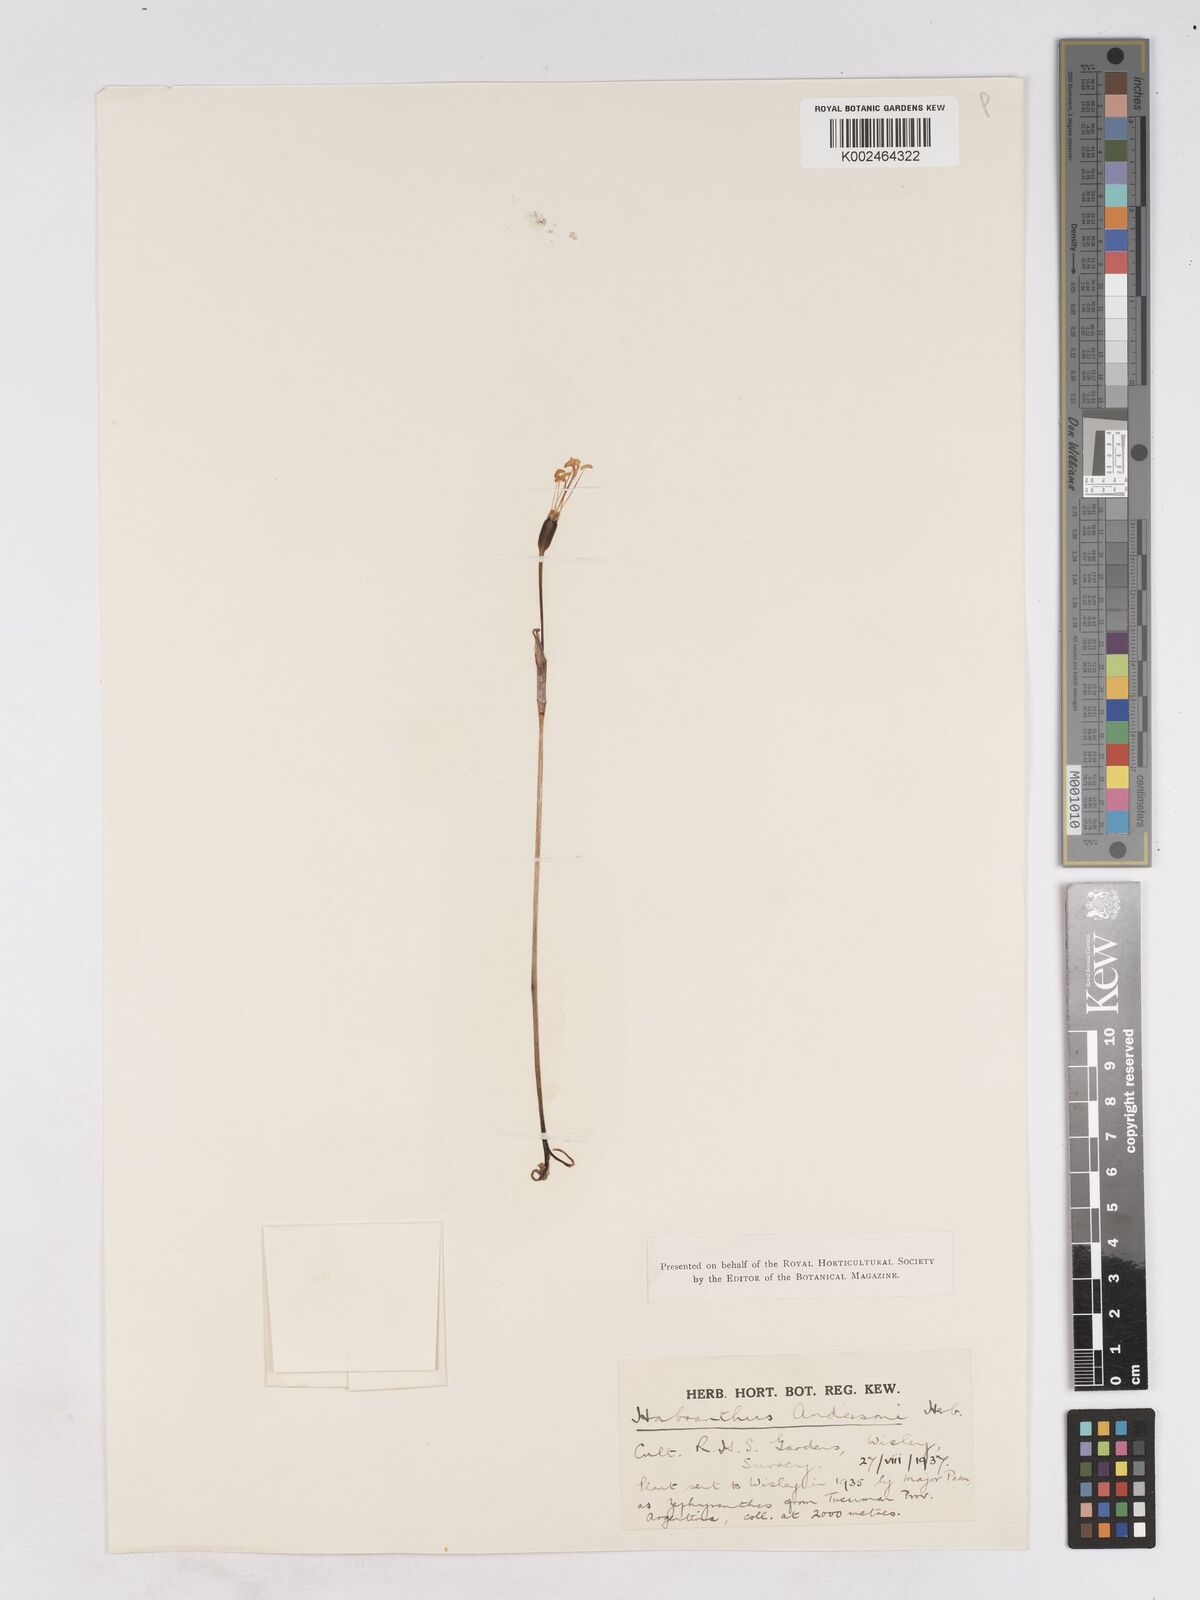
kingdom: Plantae
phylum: Tracheophyta
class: Liliopsida
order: Asparagales
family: Amaryllidaceae
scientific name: Amaryllidaceae
